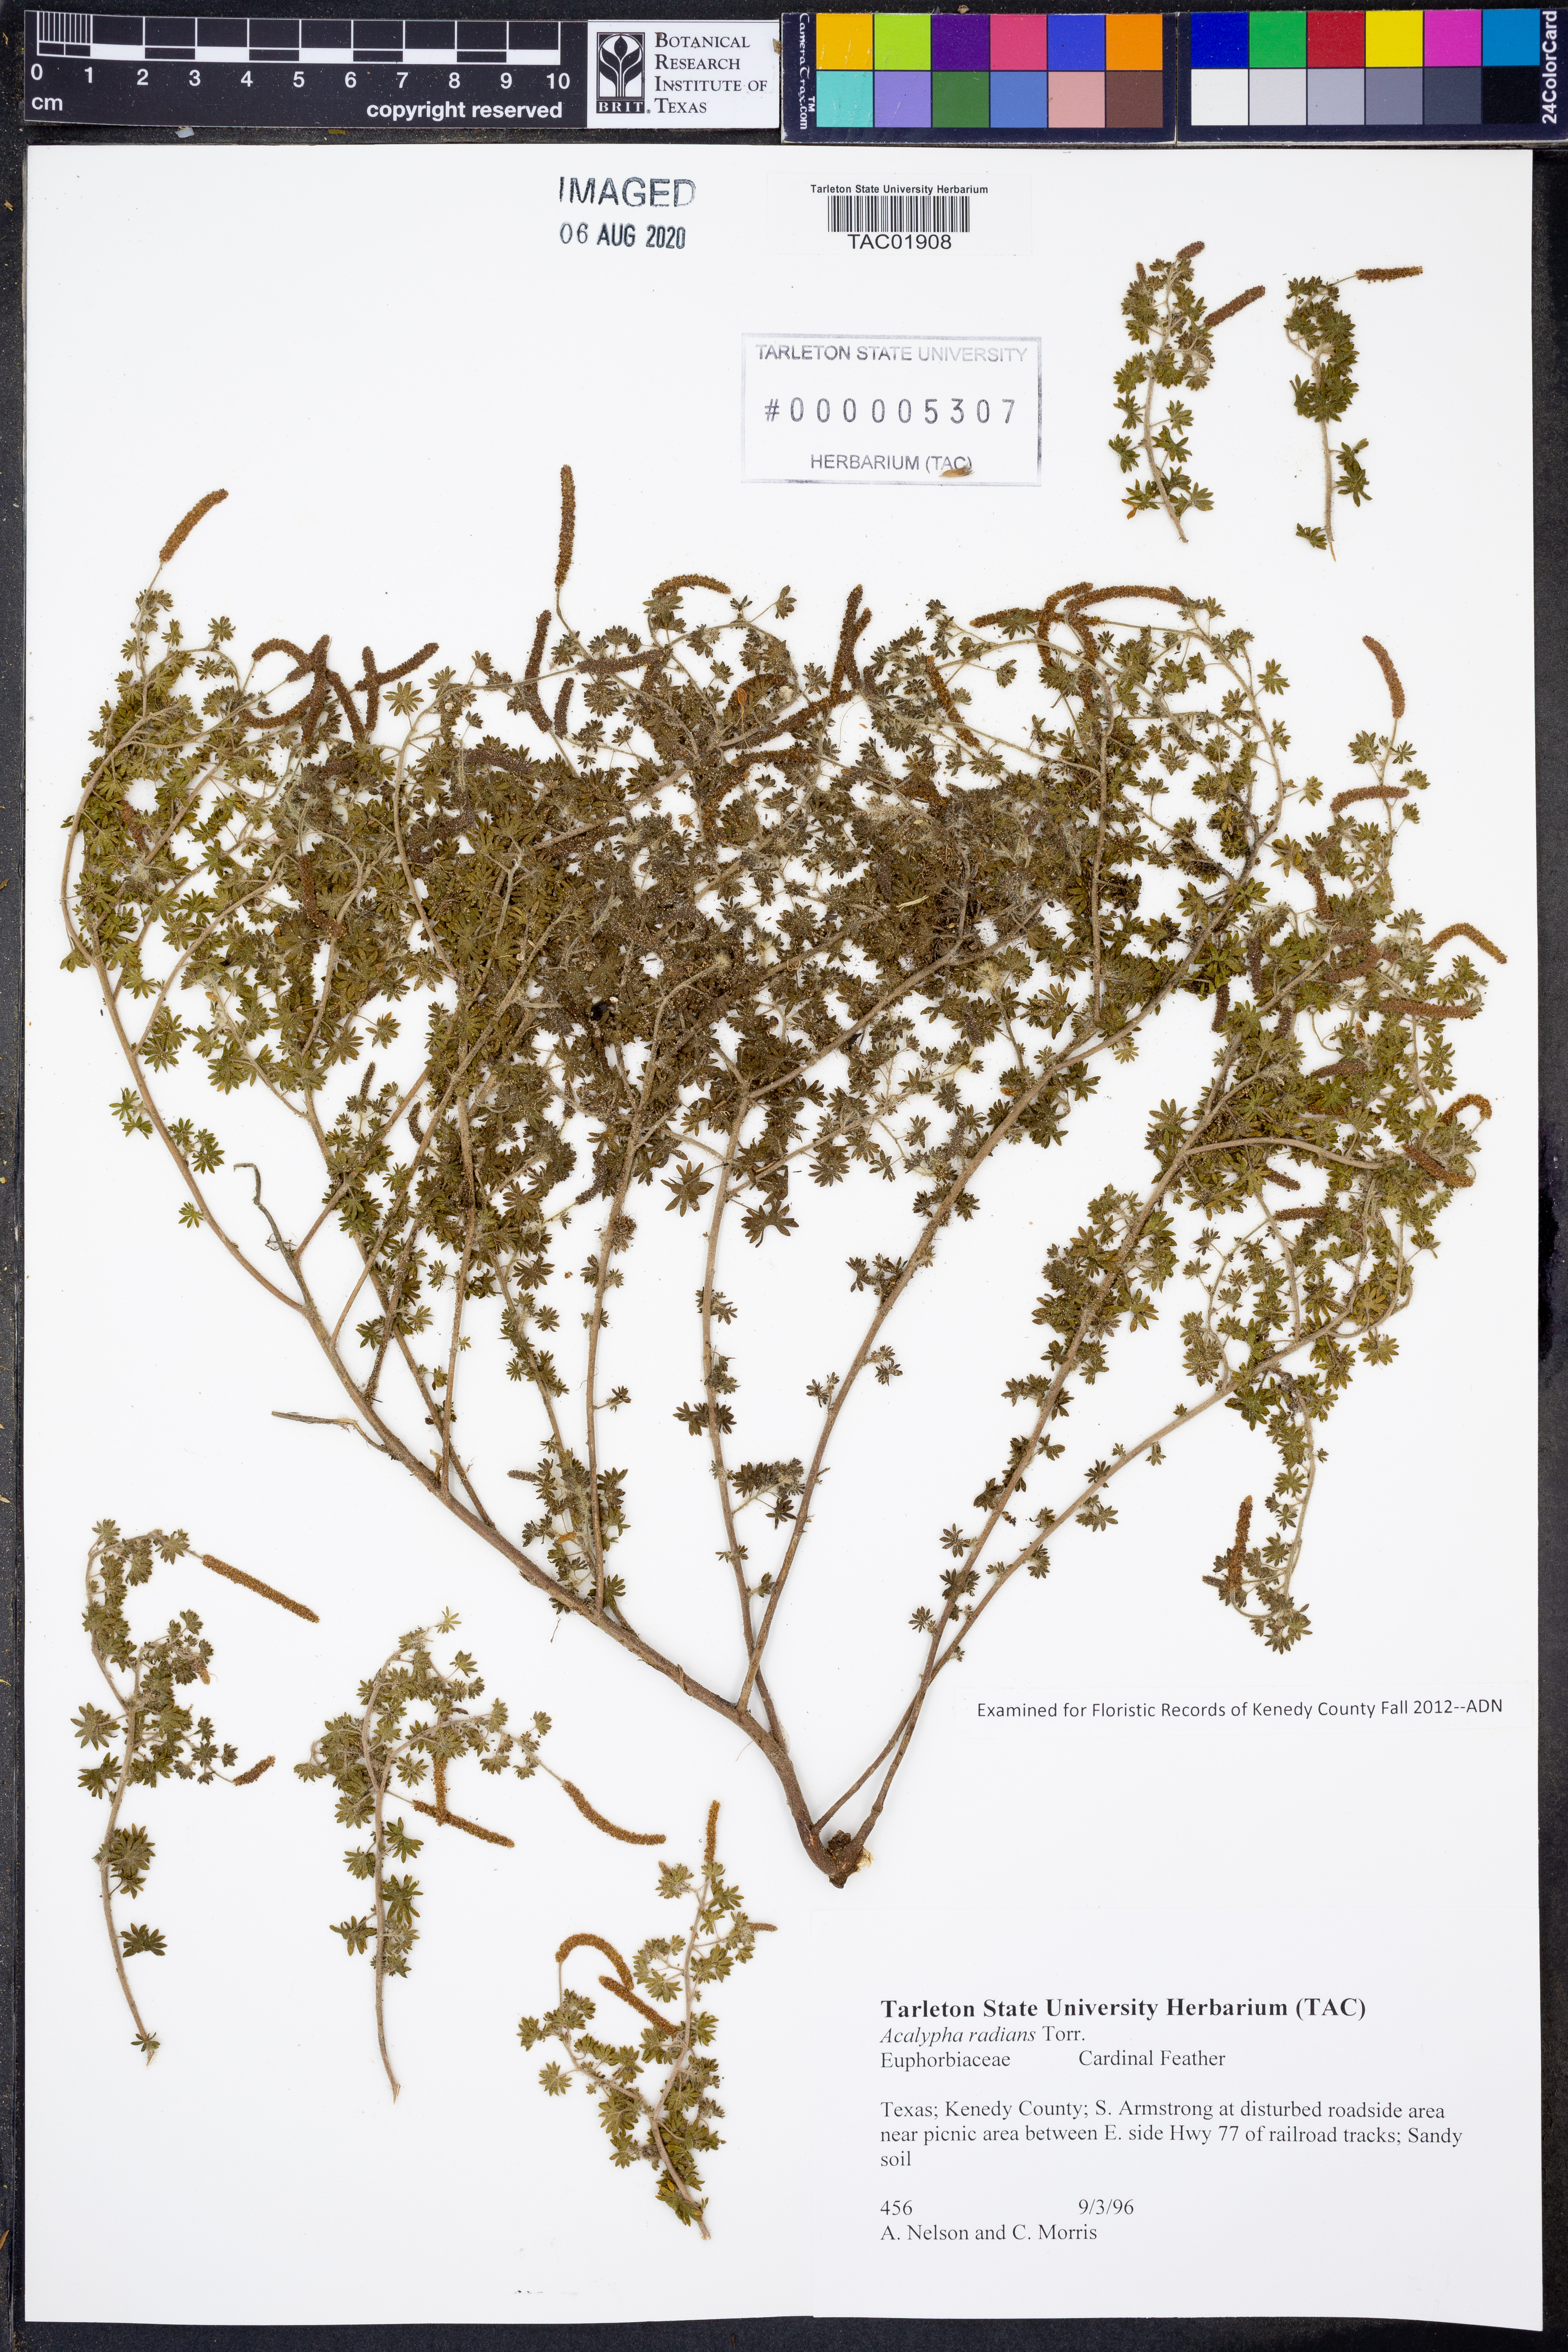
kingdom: Plantae
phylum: Tracheophyta
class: Magnoliopsida
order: Malpighiales
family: Euphorbiaceae
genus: Acalypha
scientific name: Acalypha radians
